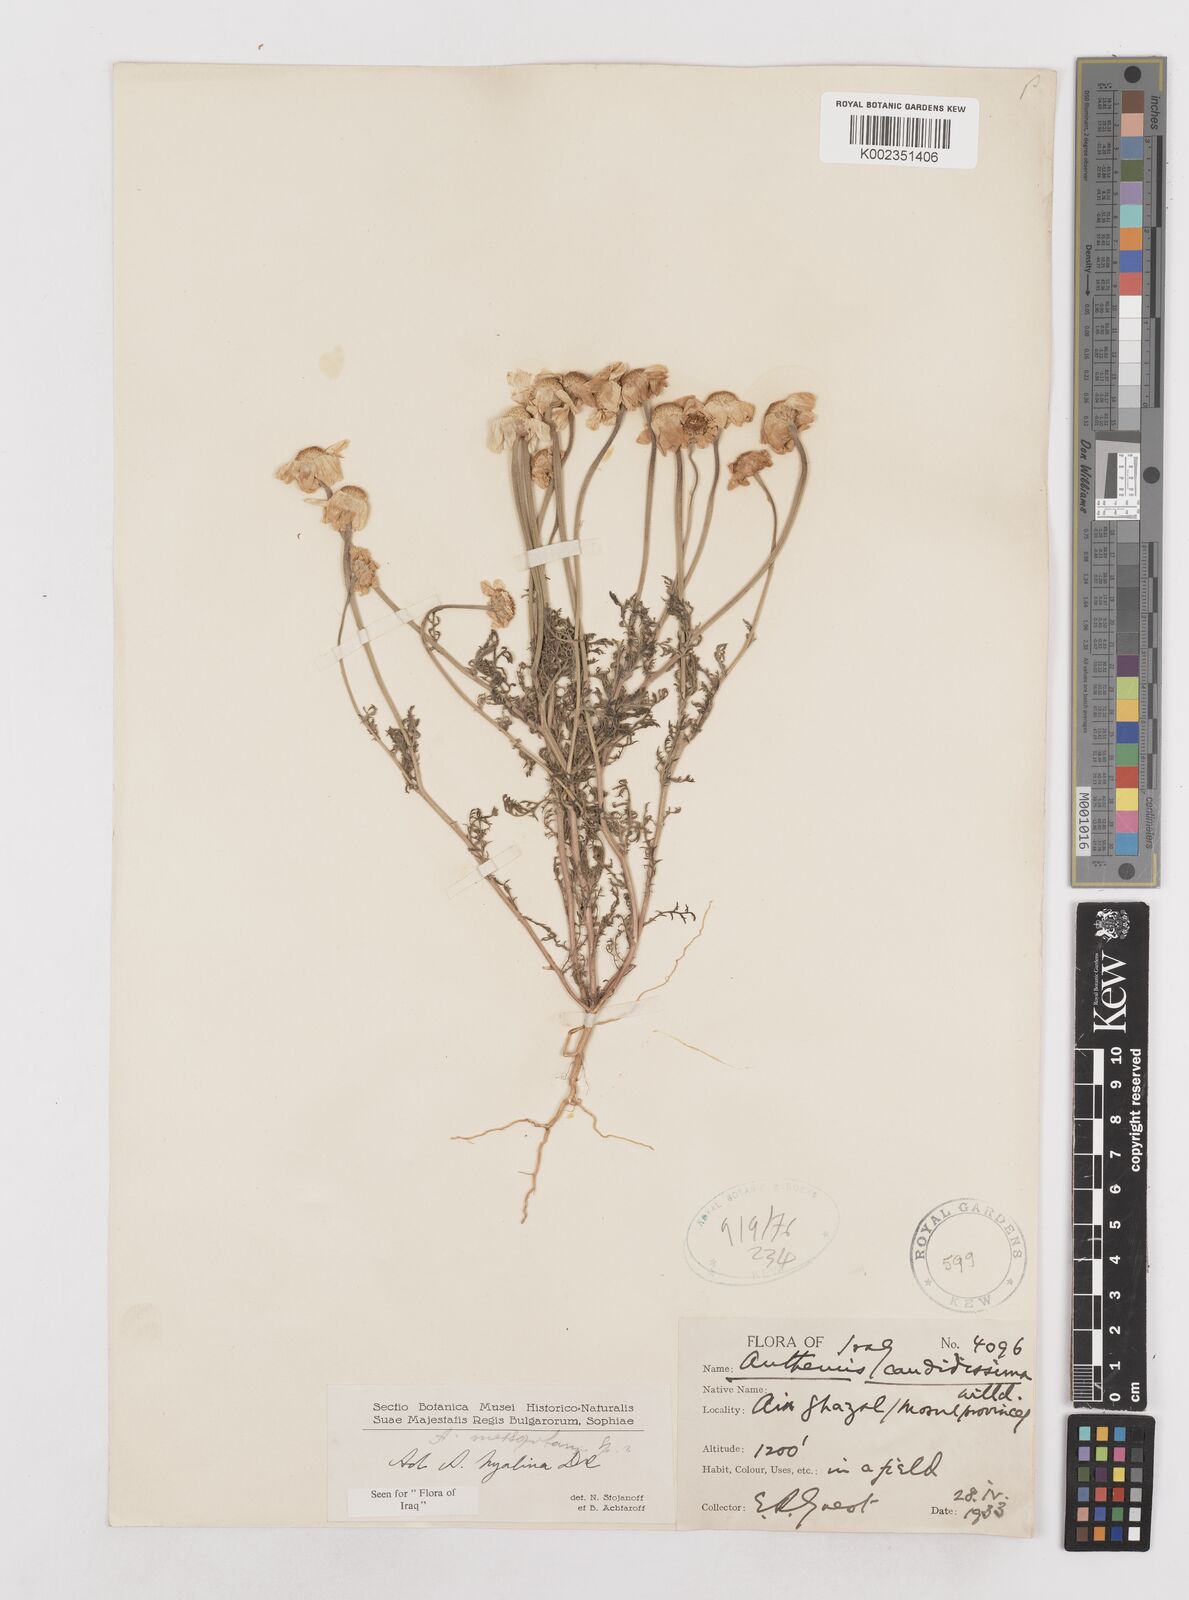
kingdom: Plantae
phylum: Tracheophyta
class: Magnoliopsida
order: Asterales
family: Asteraceae
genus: Anthemis
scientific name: Anthemis hyalina
